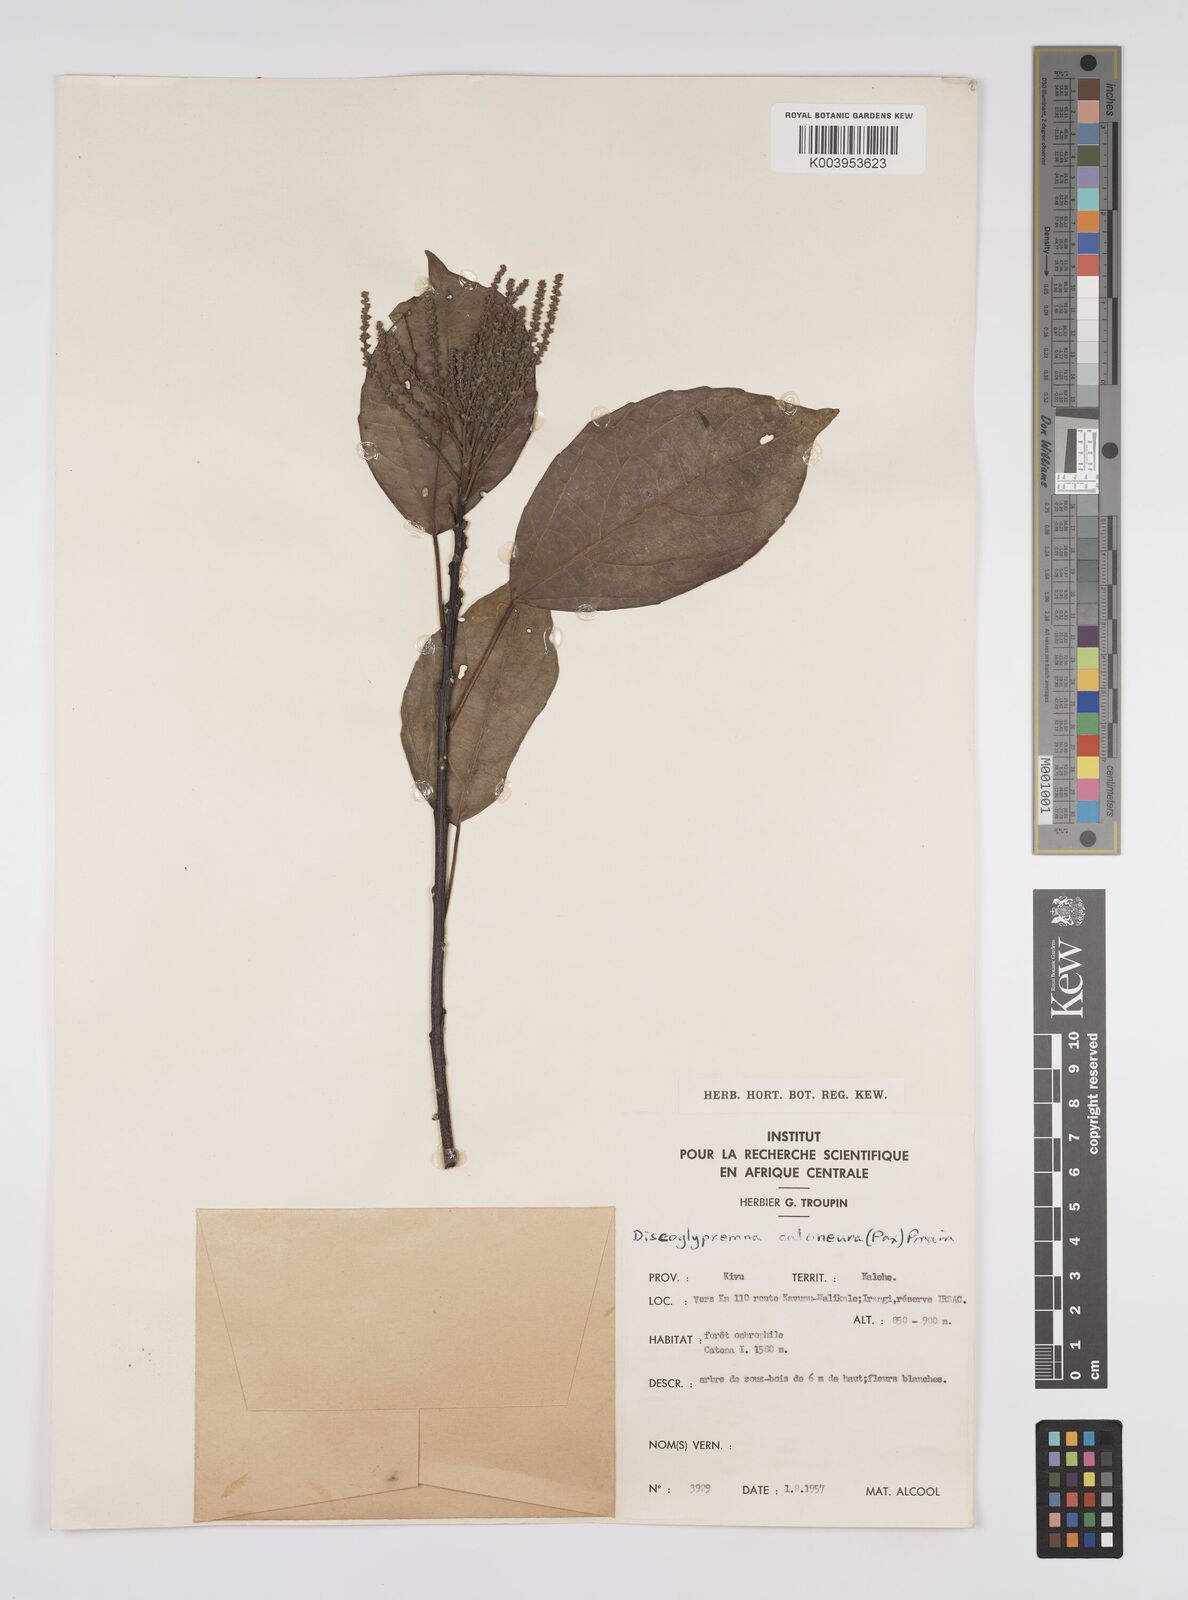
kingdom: Plantae
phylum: Tracheophyta
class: Magnoliopsida
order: Malpighiales
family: Euphorbiaceae
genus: Discoglypremna
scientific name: Discoglypremna caloneura
